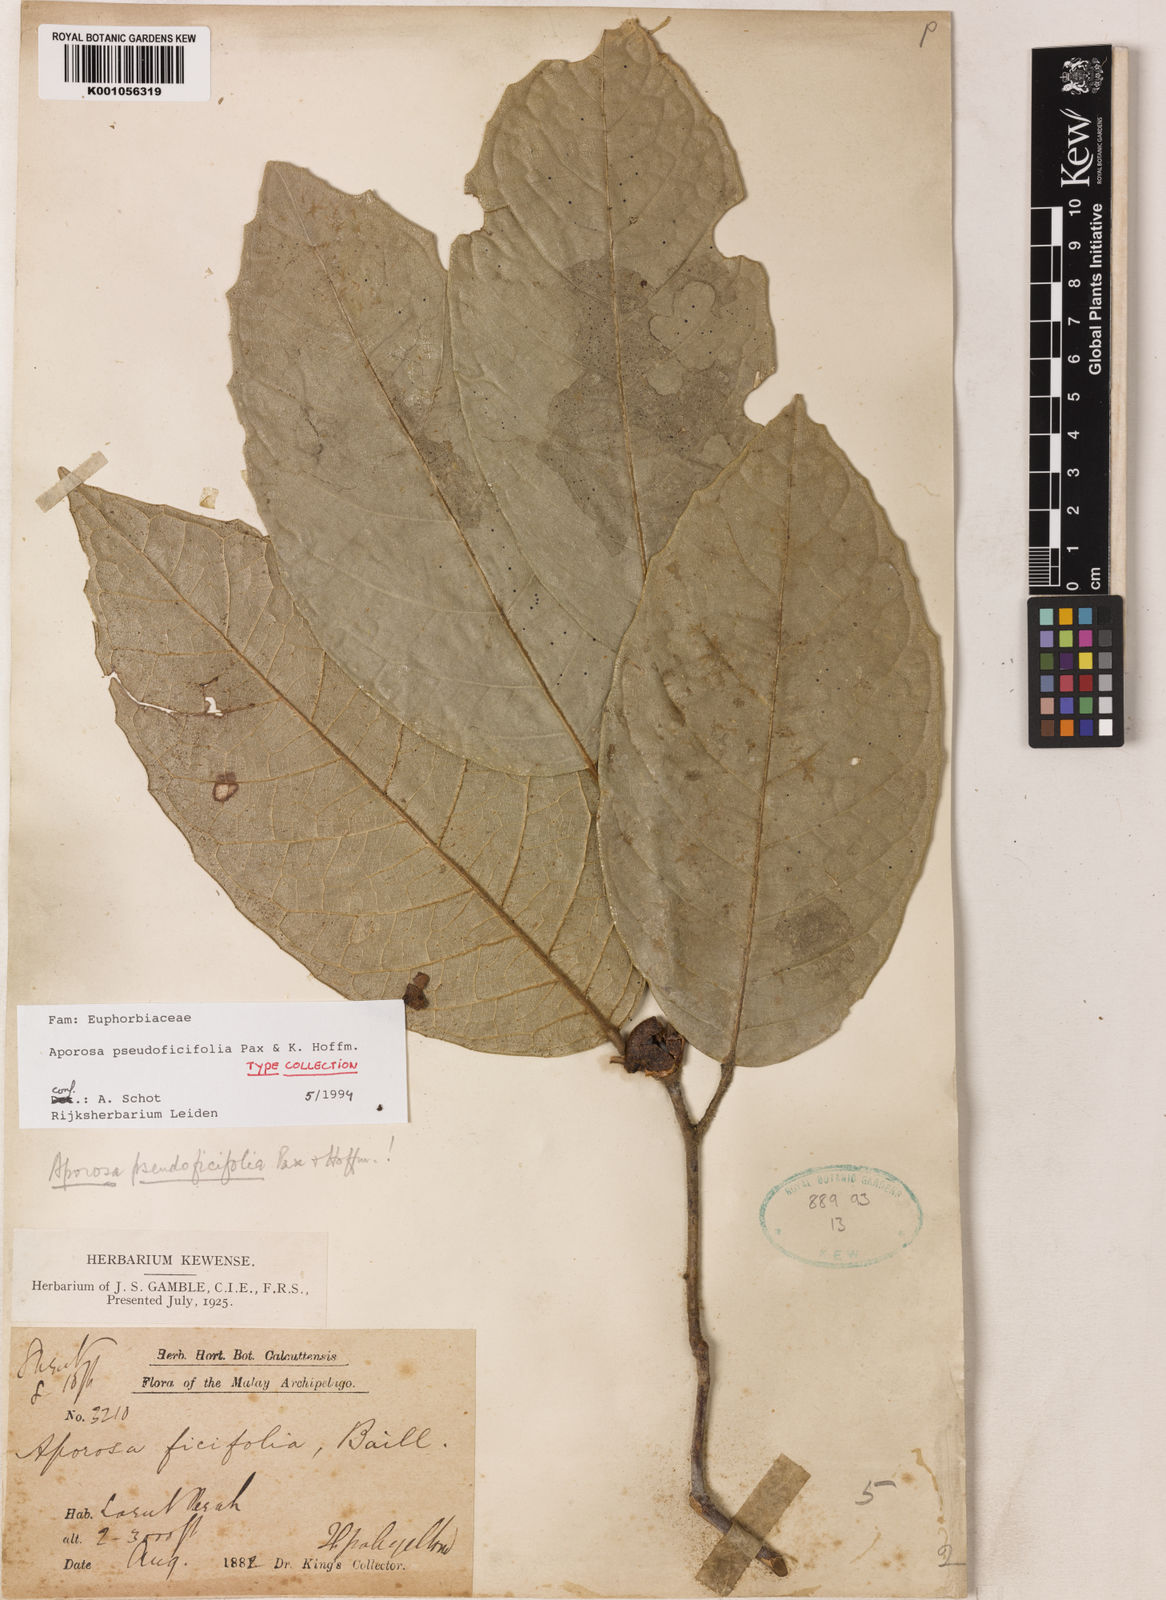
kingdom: Plantae
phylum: Tracheophyta
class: Magnoliopsida
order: Malpighiales
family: Phyllanthaceae
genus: Aporosa
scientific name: Aporosa pseudoficifolia
